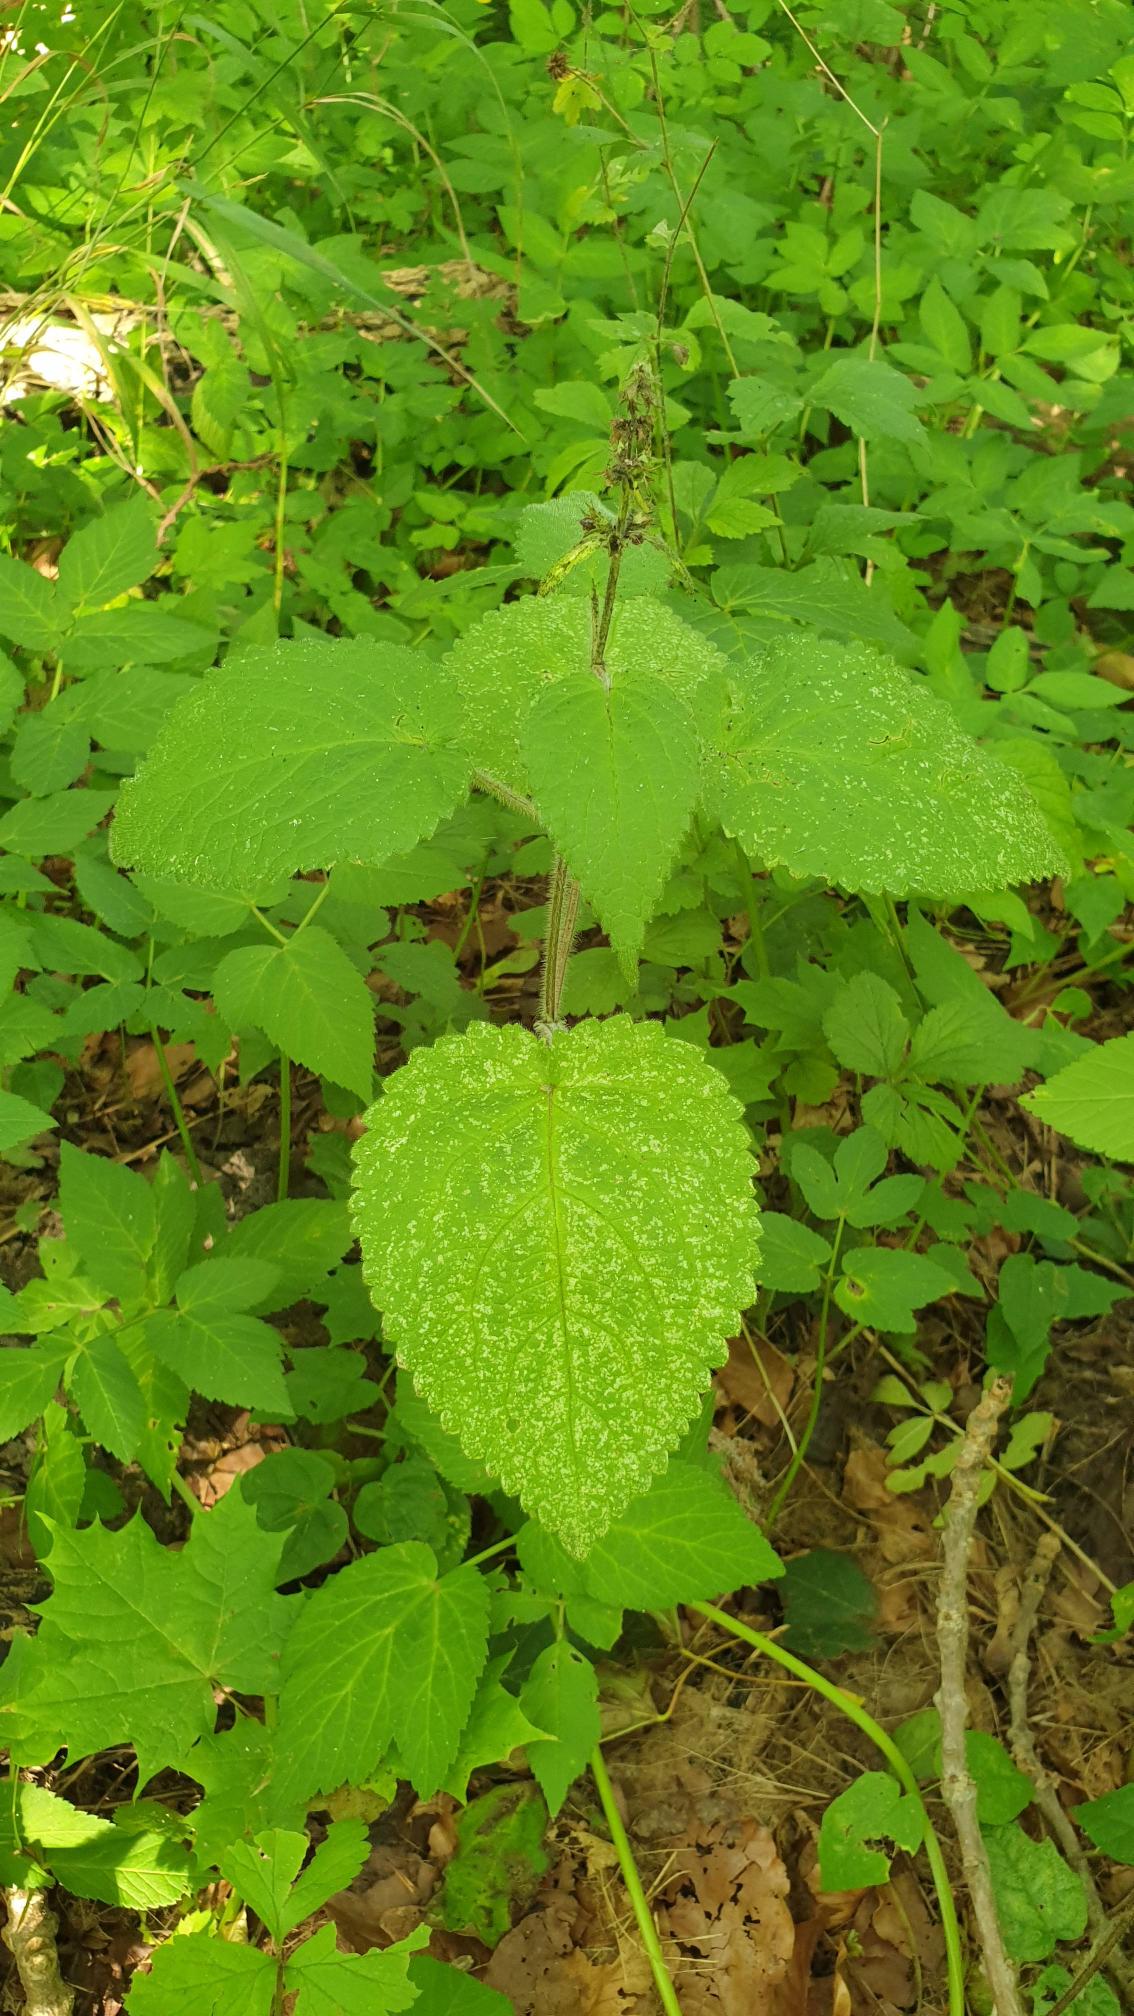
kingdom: Plantae
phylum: Tracheophyta
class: Magnoliopsida
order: Lamiales
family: Lamiaceae
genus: Stachys
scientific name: Stachys sylvatica
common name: Skov-galtetand
